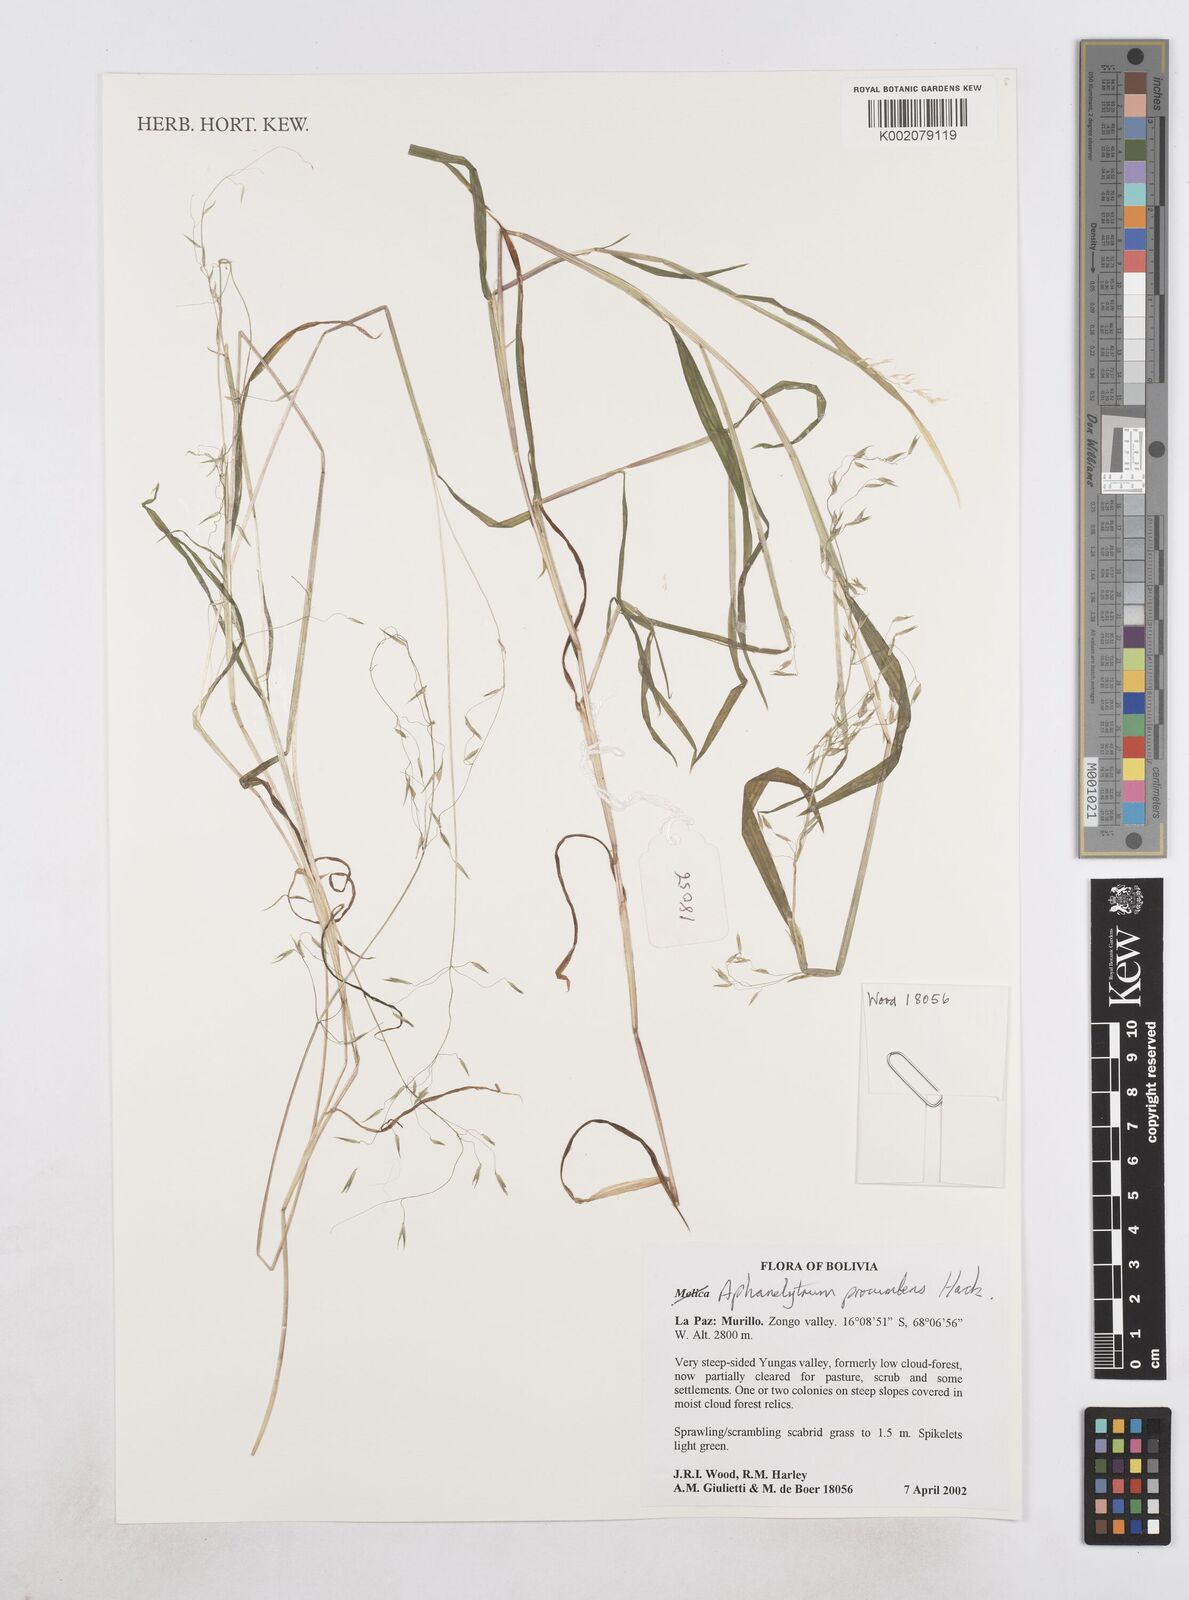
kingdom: Plantae
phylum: Tracheophyta
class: Liliopsida
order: Poales
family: Poaceae
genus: Poa
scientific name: Poa hitchcockiana
